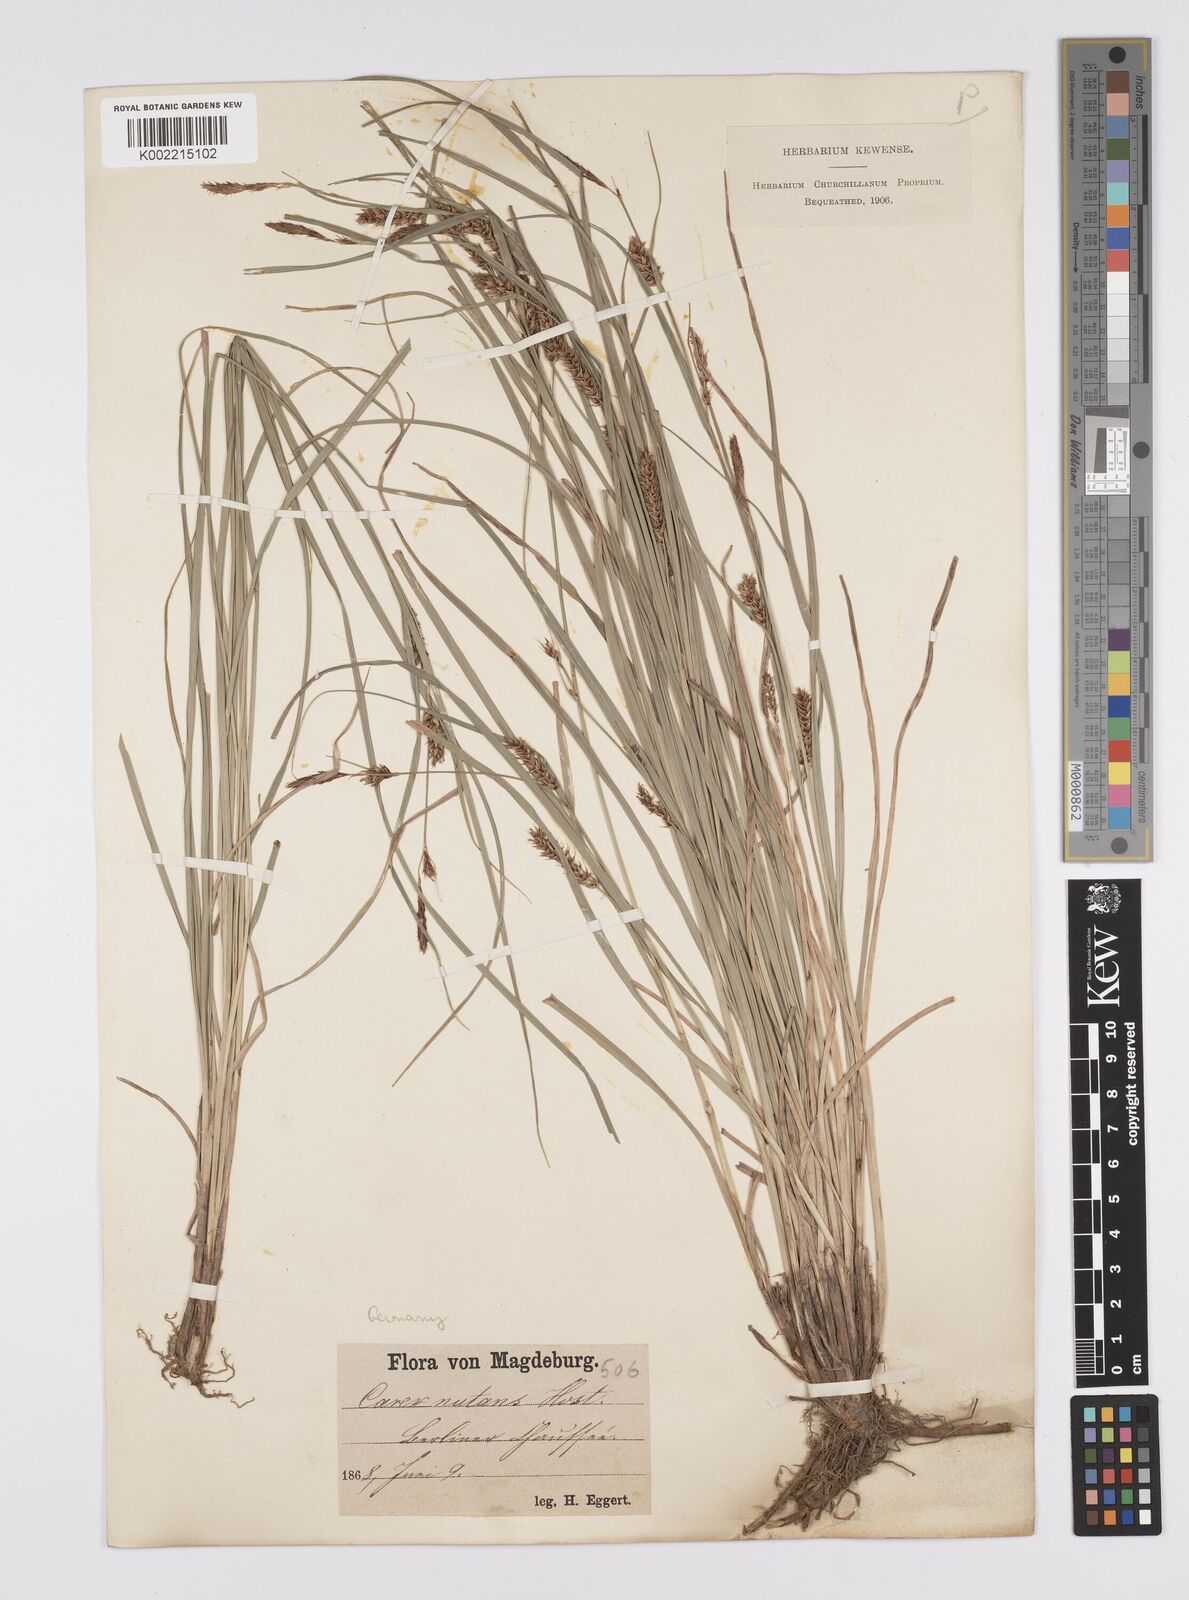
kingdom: Plantae
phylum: Tracheophyta
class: Liliopsida
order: Poales
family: Cyperaceae
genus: Carex
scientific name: Carex melanostachya
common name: Black-spiked sedge
